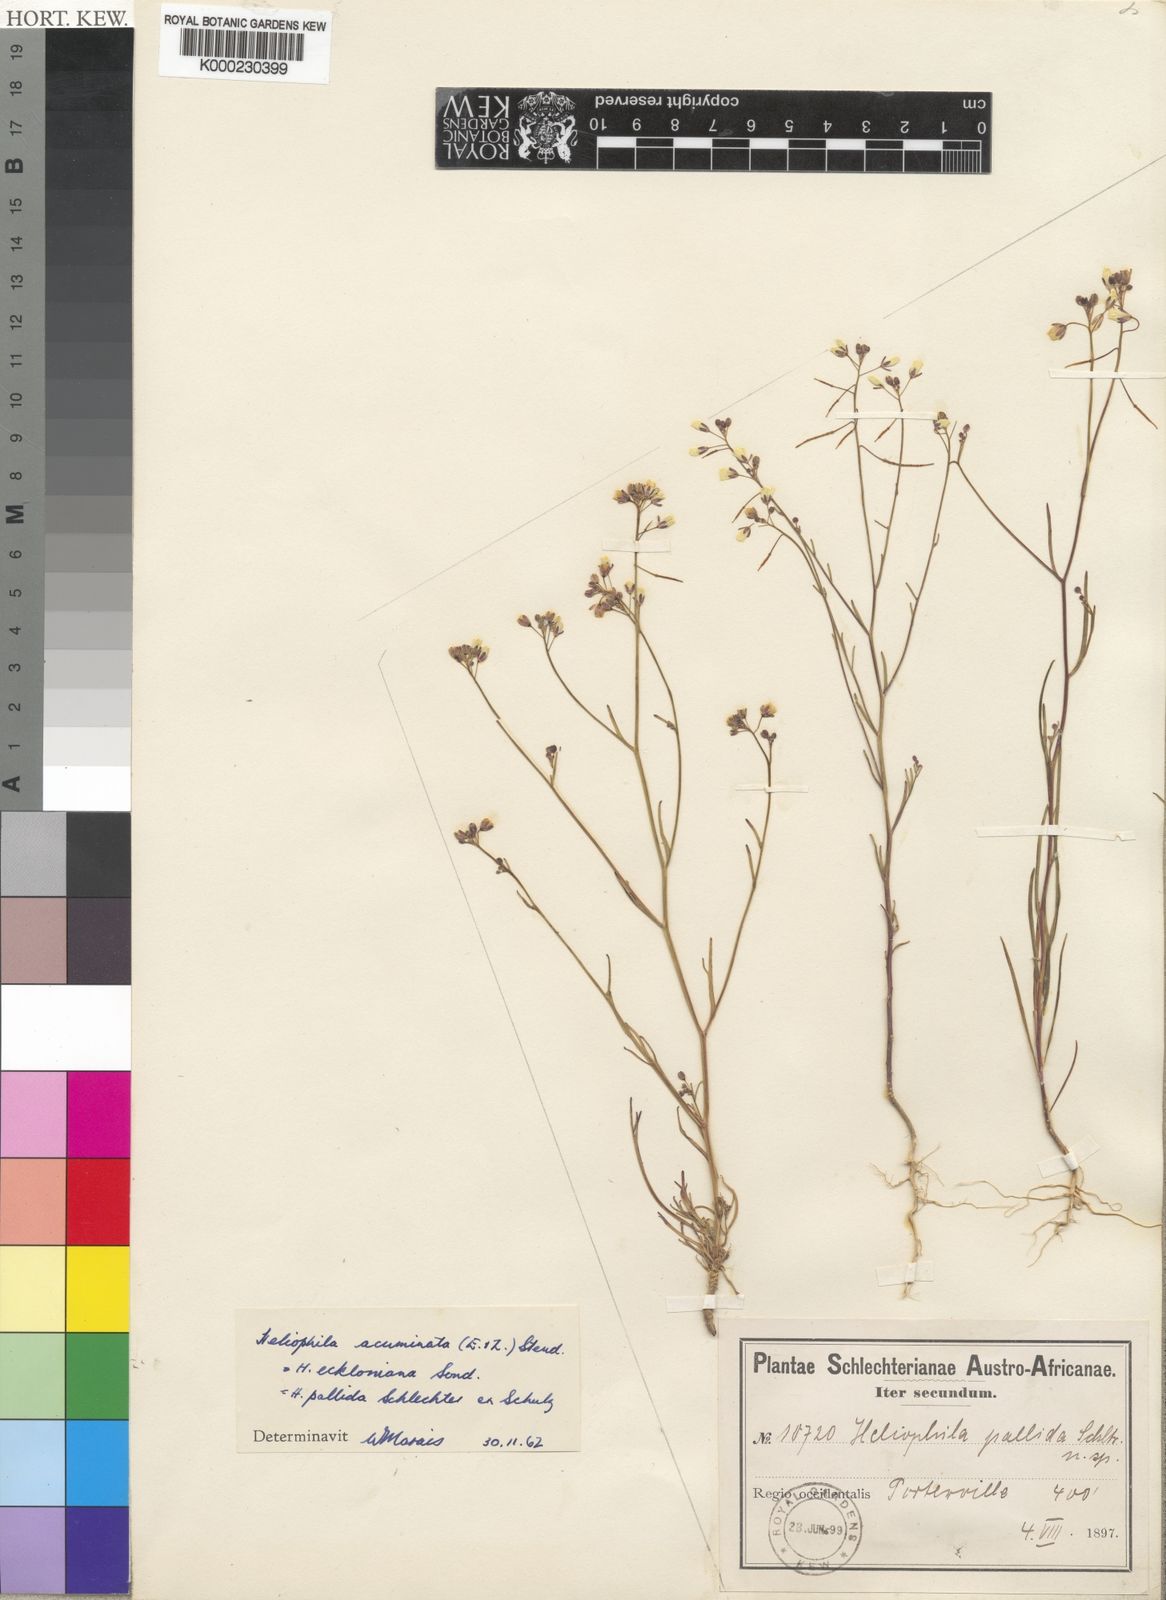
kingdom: Plantae
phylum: Tracheophyta
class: Magnoliopsida
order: Brassicales
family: Brassicaceae
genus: Heliophila
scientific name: Heliophila acuminata
